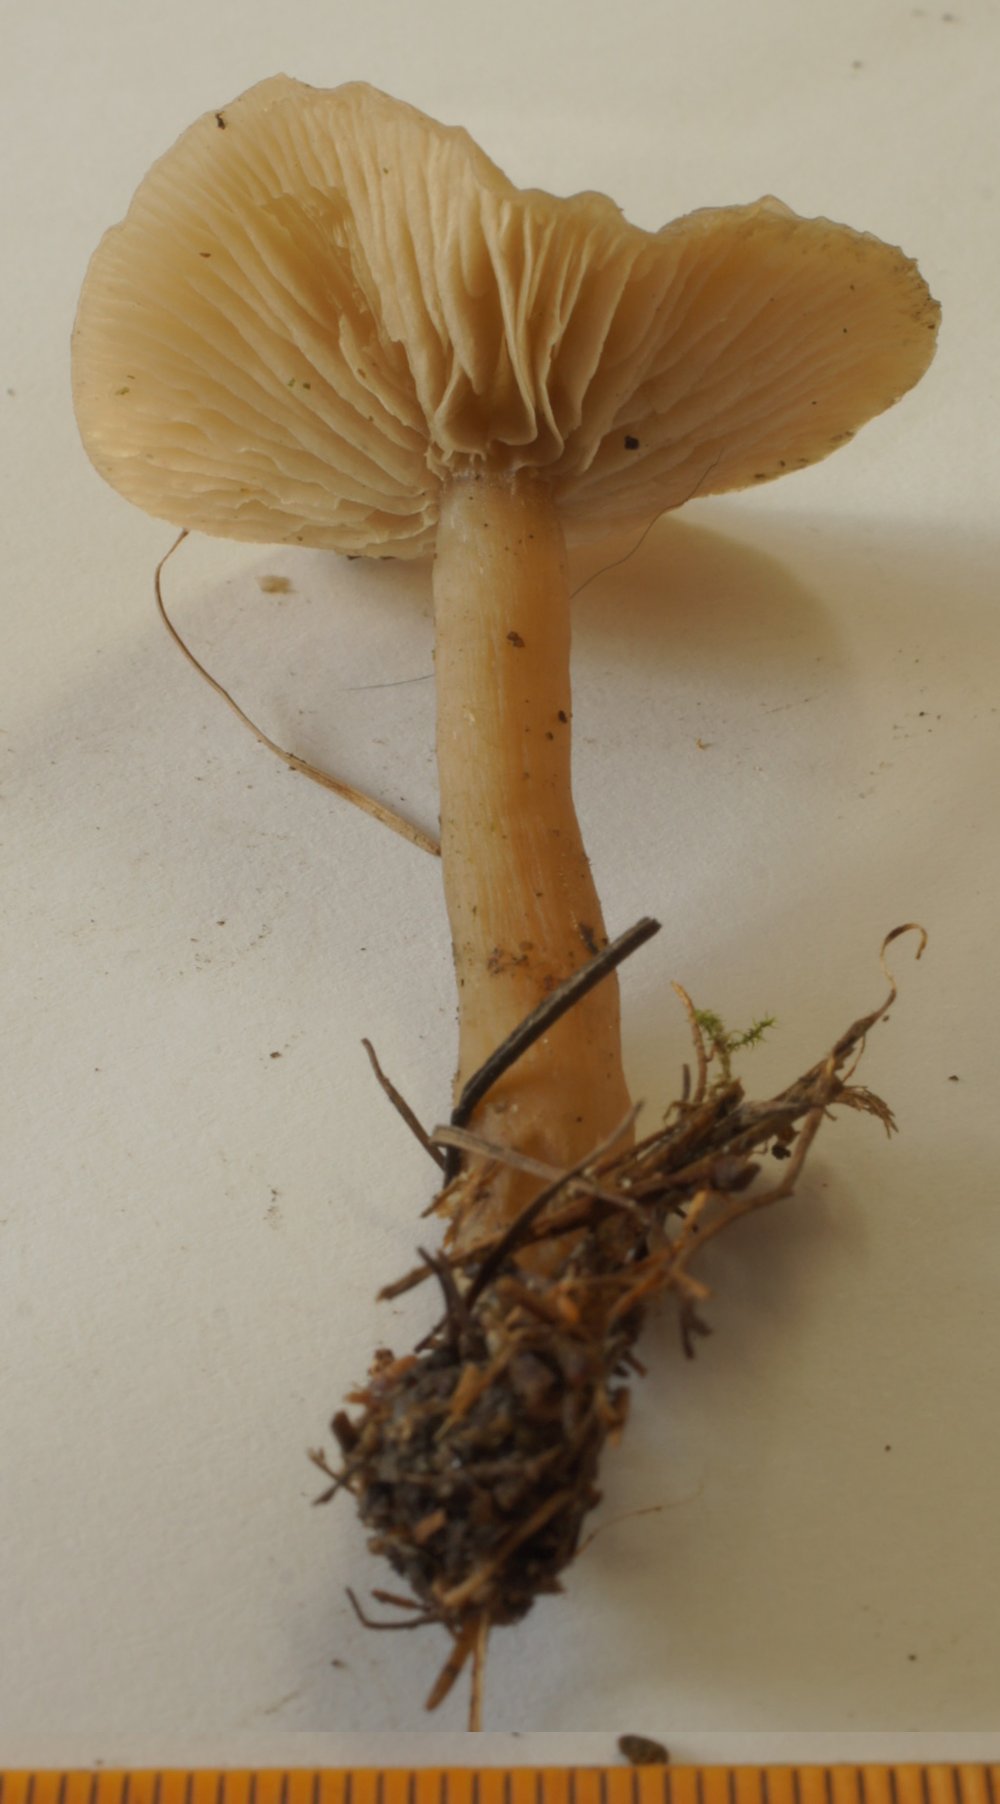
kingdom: Fungi
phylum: Basidiomycota
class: Agaricomycetes
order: Agaricales
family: Tricholomataceae
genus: Clitocybe
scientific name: Clitocybe fragrans
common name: vellugtende tragthat
